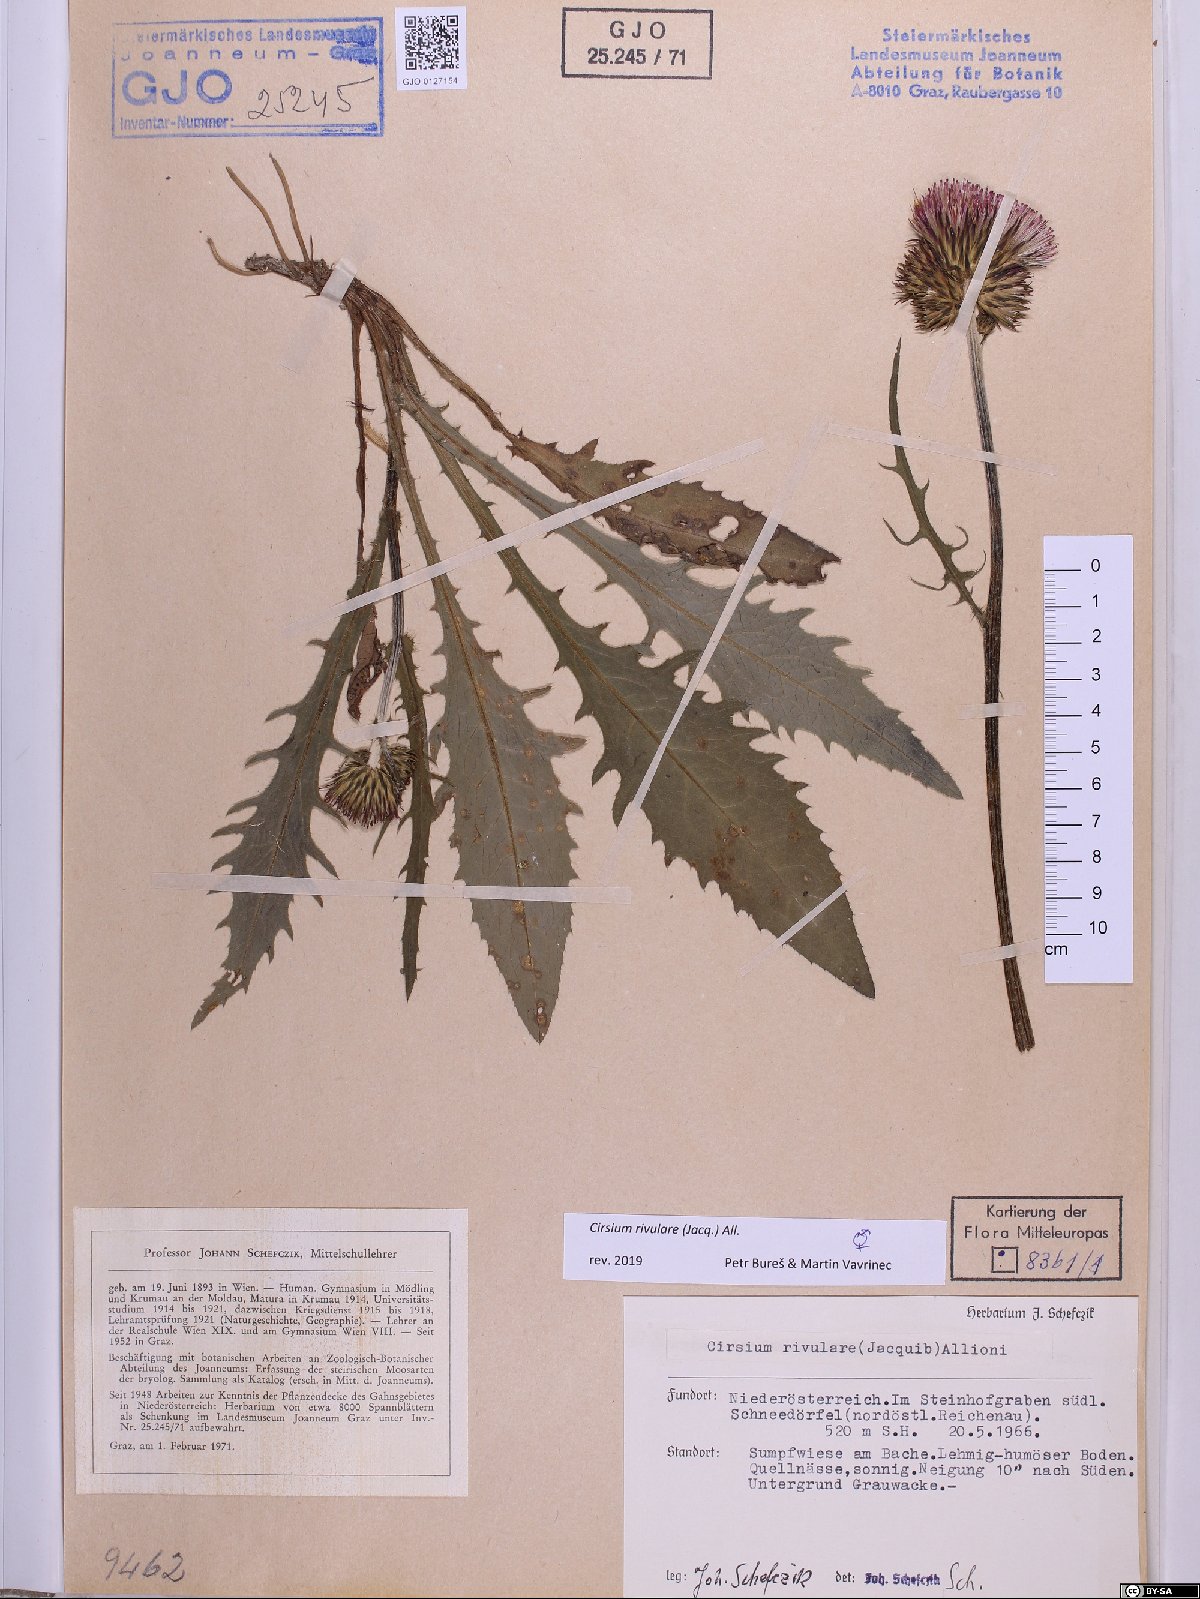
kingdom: Plantae
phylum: Tracheophyta
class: Magnoliopsida
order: Asterales
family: Asteraceae
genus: Cirsium
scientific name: Cirsium rivulare
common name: Brook thistle
